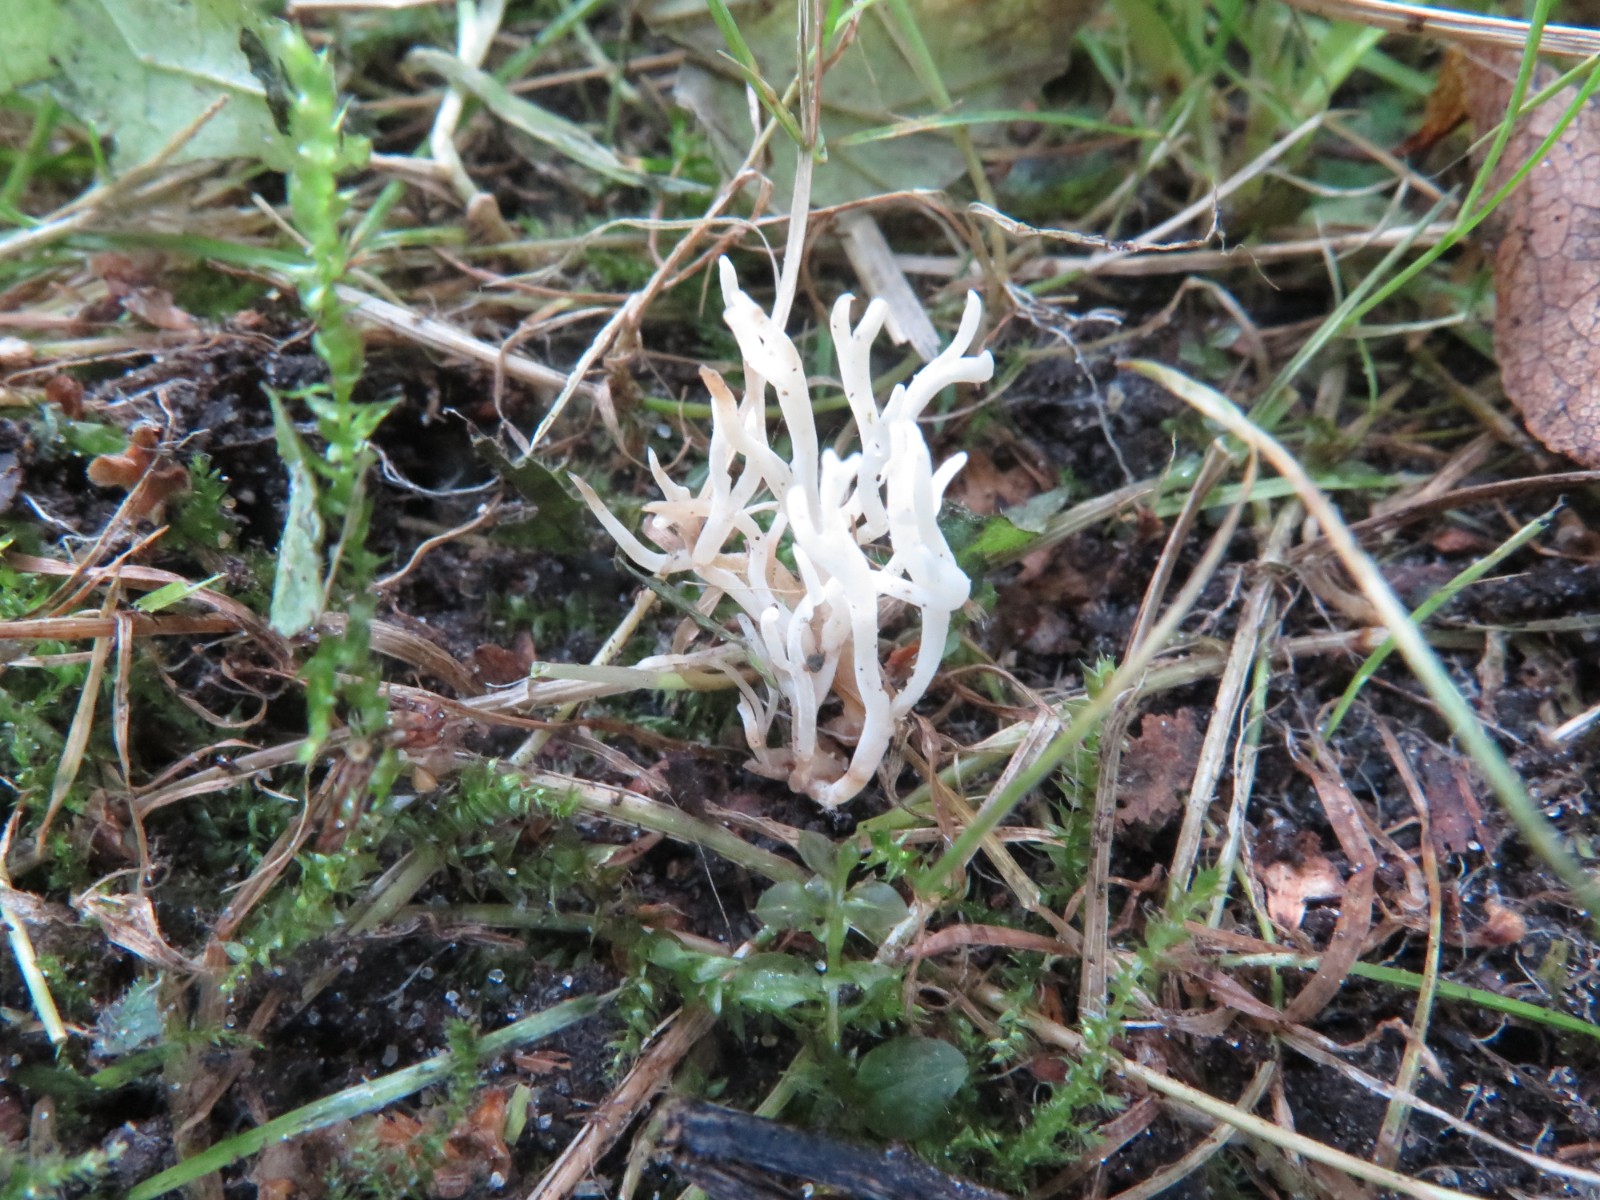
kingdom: Fungi
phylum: Basidiomycota
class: Agaricomycetes
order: Agaricales
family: Clavariaceae
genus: Ramariopsis
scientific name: Ramariopsis
